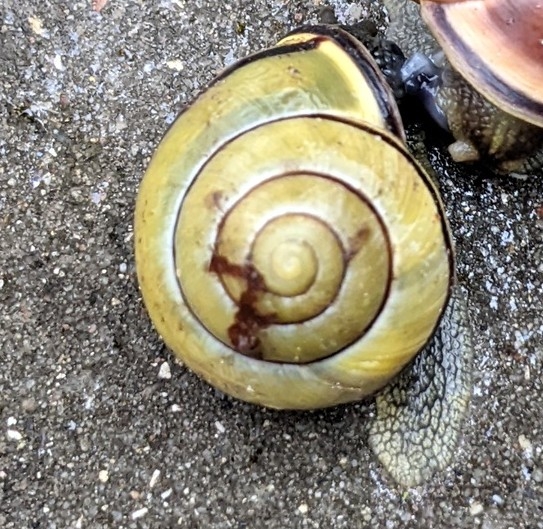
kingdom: Animalia
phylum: Mollusca
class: Gastropoda
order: Stylommatophora
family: Helicidae
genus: Cepaea
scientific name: Cepaea nemoralis
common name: Lundsnegl
